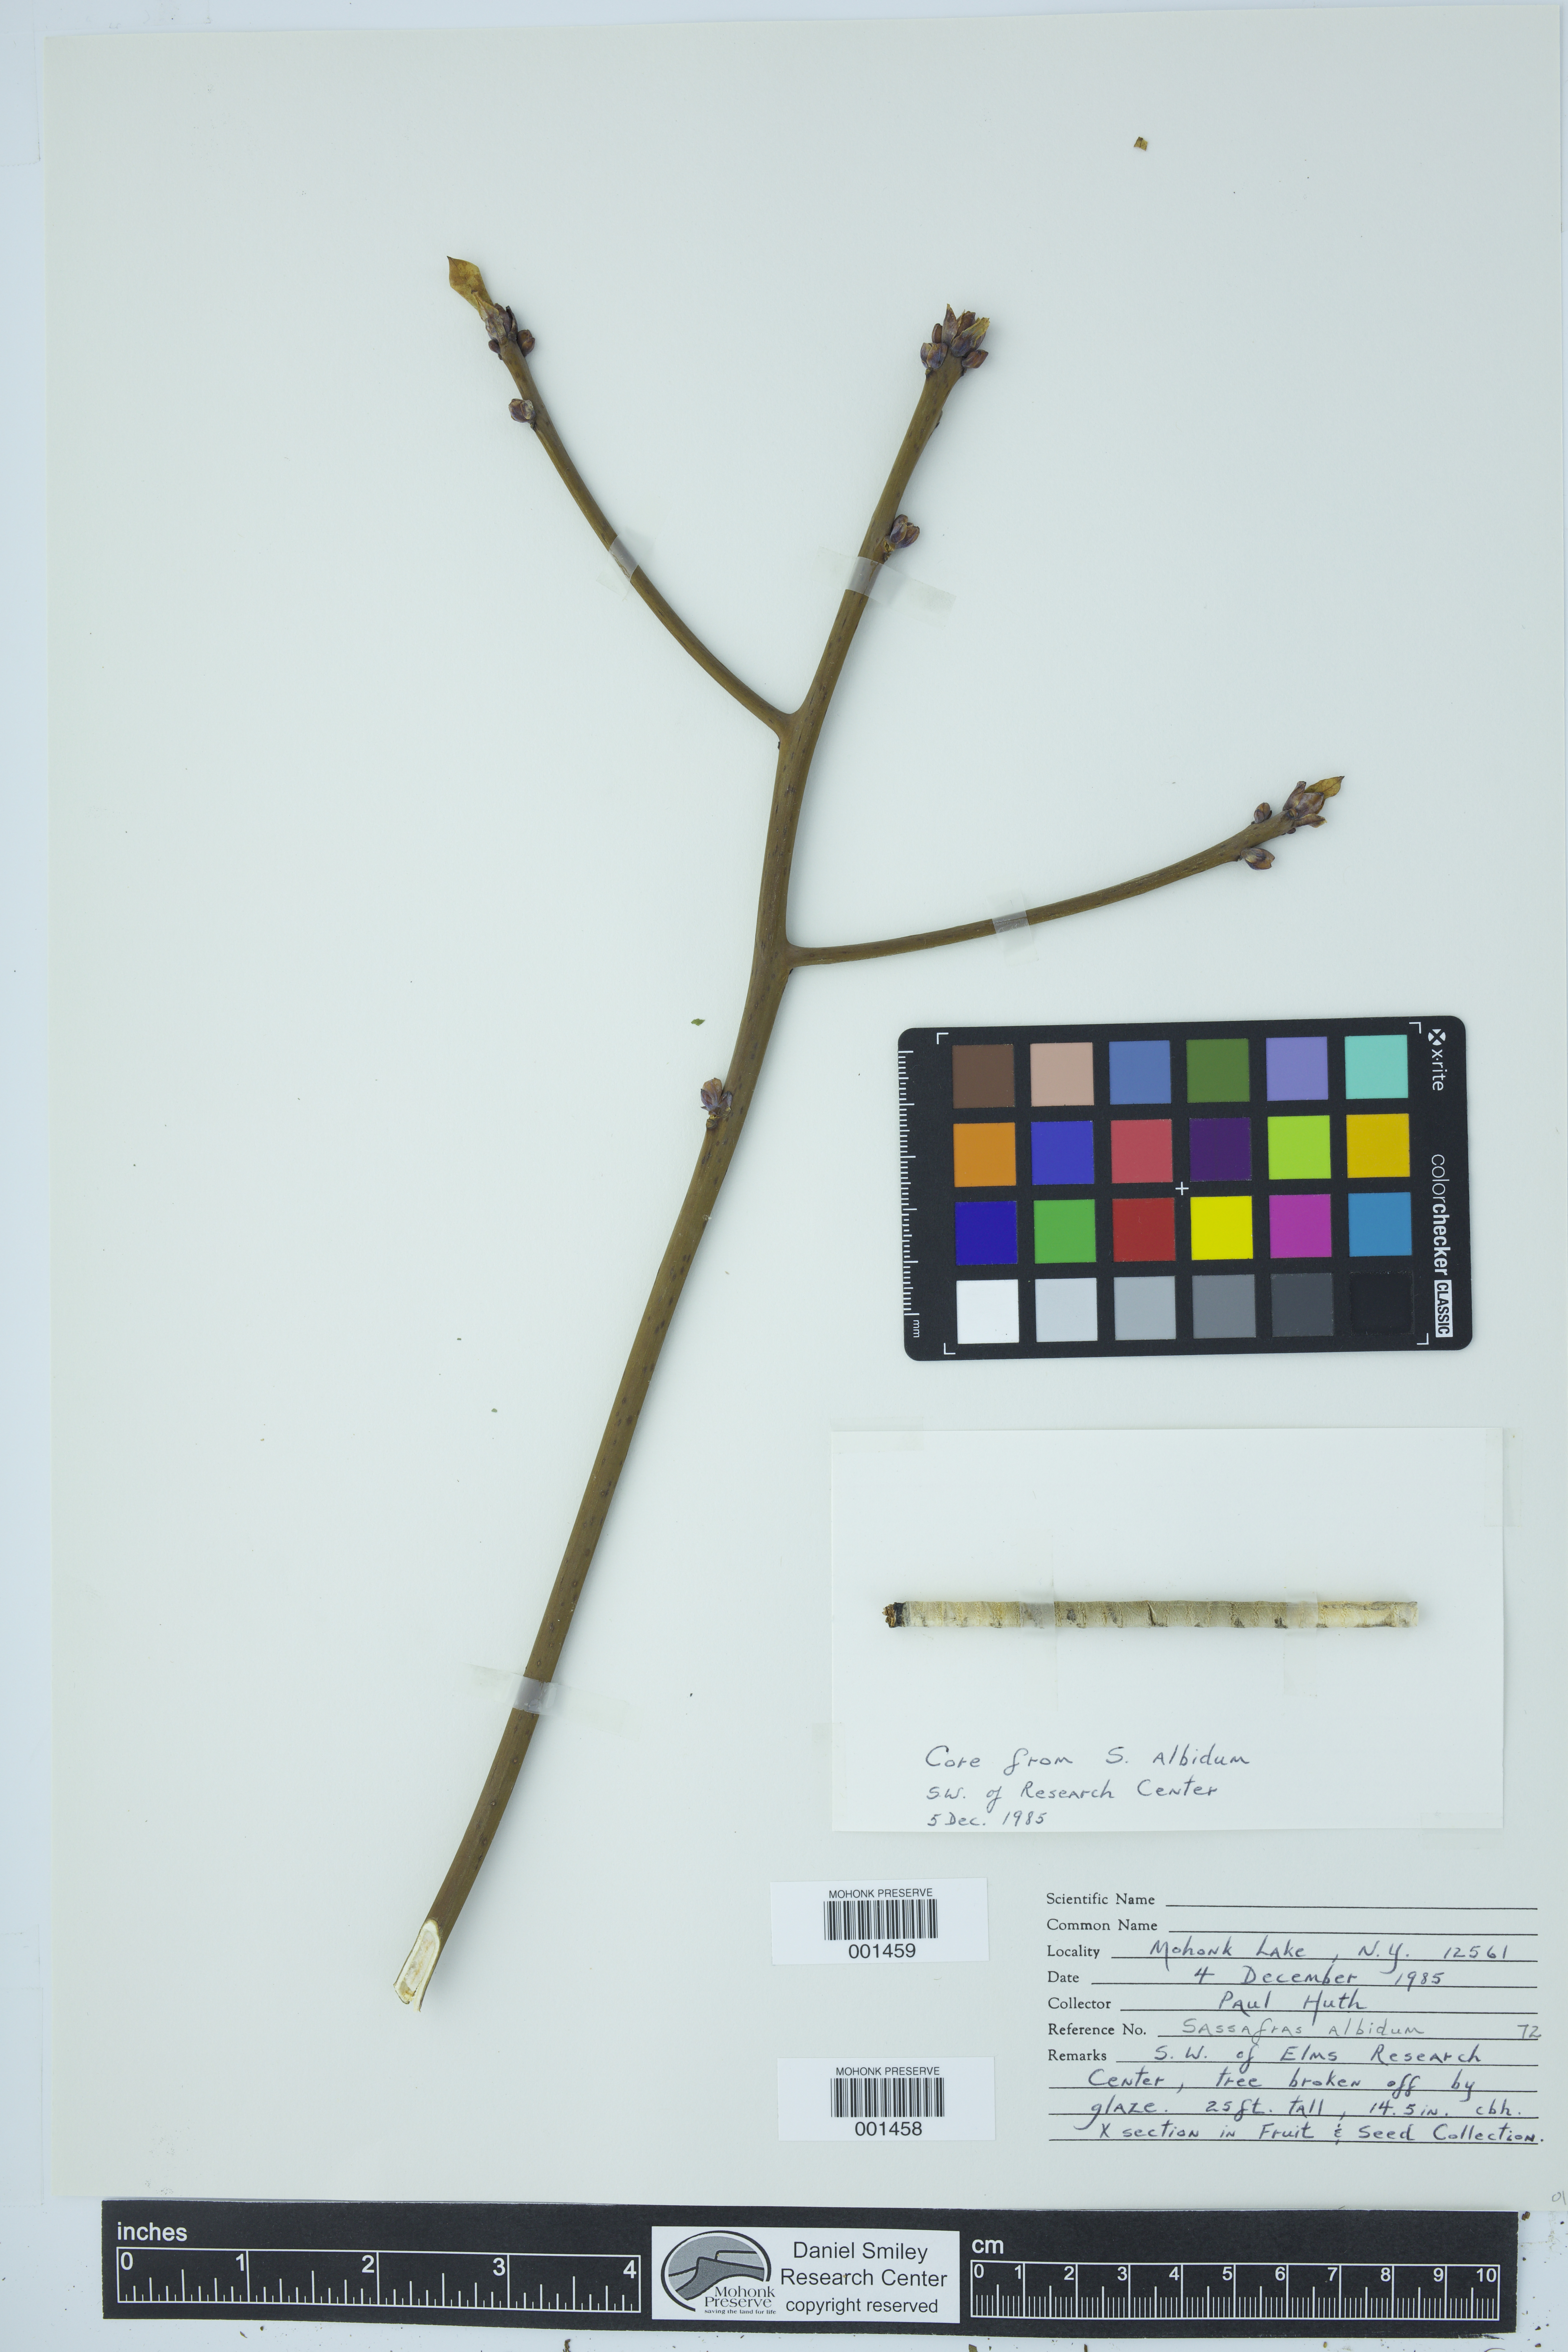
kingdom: Plantae
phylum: Tracheophyta
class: Magnoliopsida
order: Laurales
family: Lauraceae
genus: Sassafras
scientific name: Sassafras albidum
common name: Sassafras
